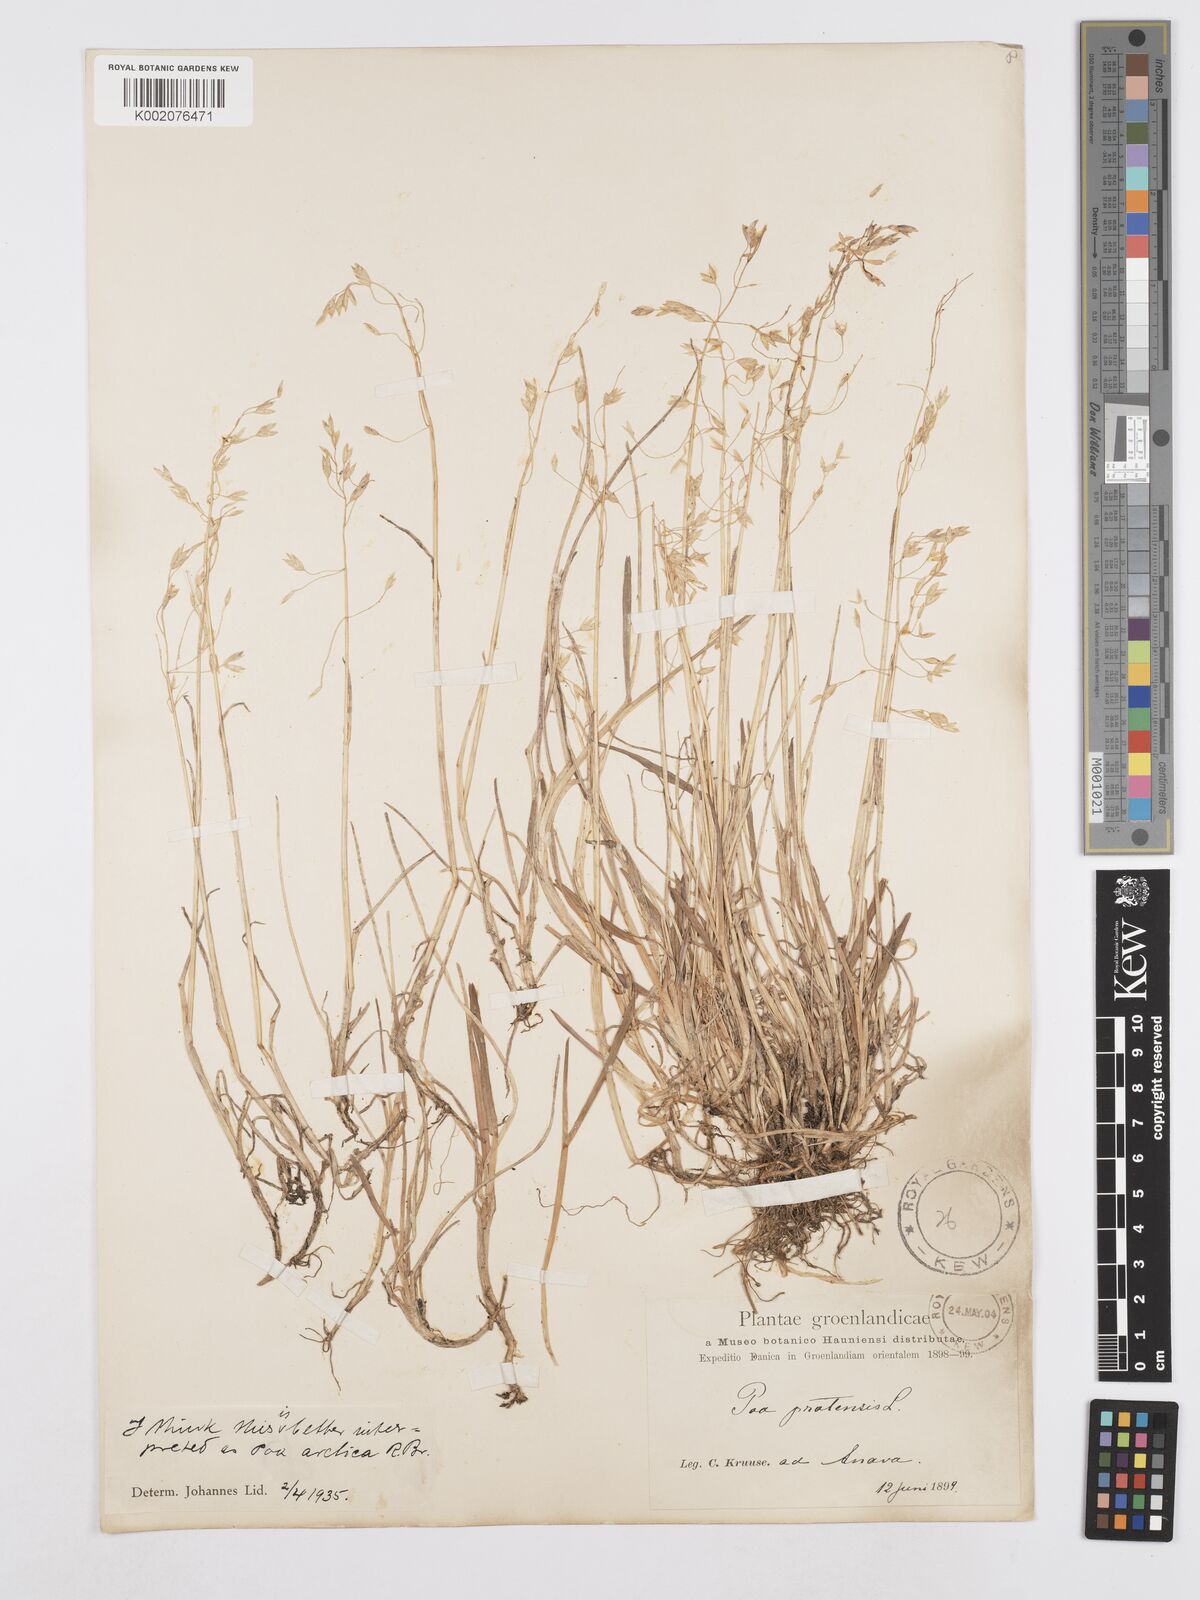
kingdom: Plantae
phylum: Tracheophyta
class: Liliopsida
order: Poales
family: Poaceae
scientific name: Poaceae
